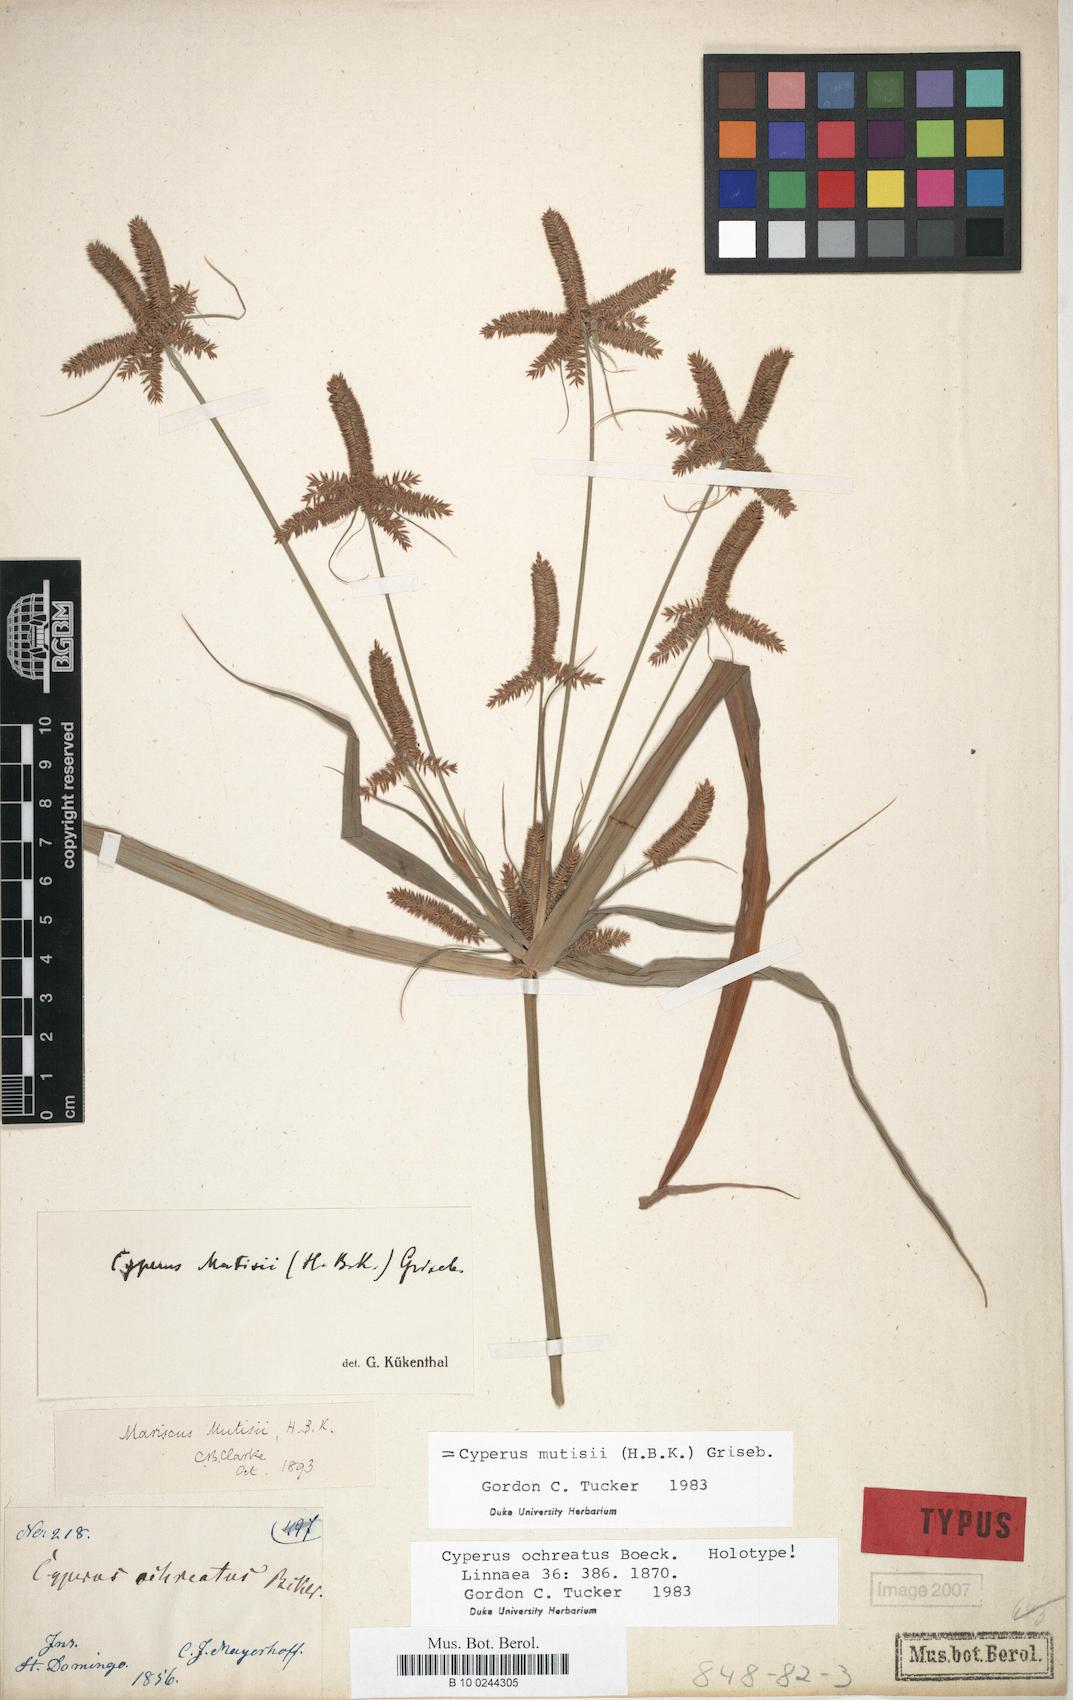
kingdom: Plantae
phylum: Tracheophyta
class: Liliopsida
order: Poales
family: Cyperaceae
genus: Cyperus
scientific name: Cyperus mutisii
